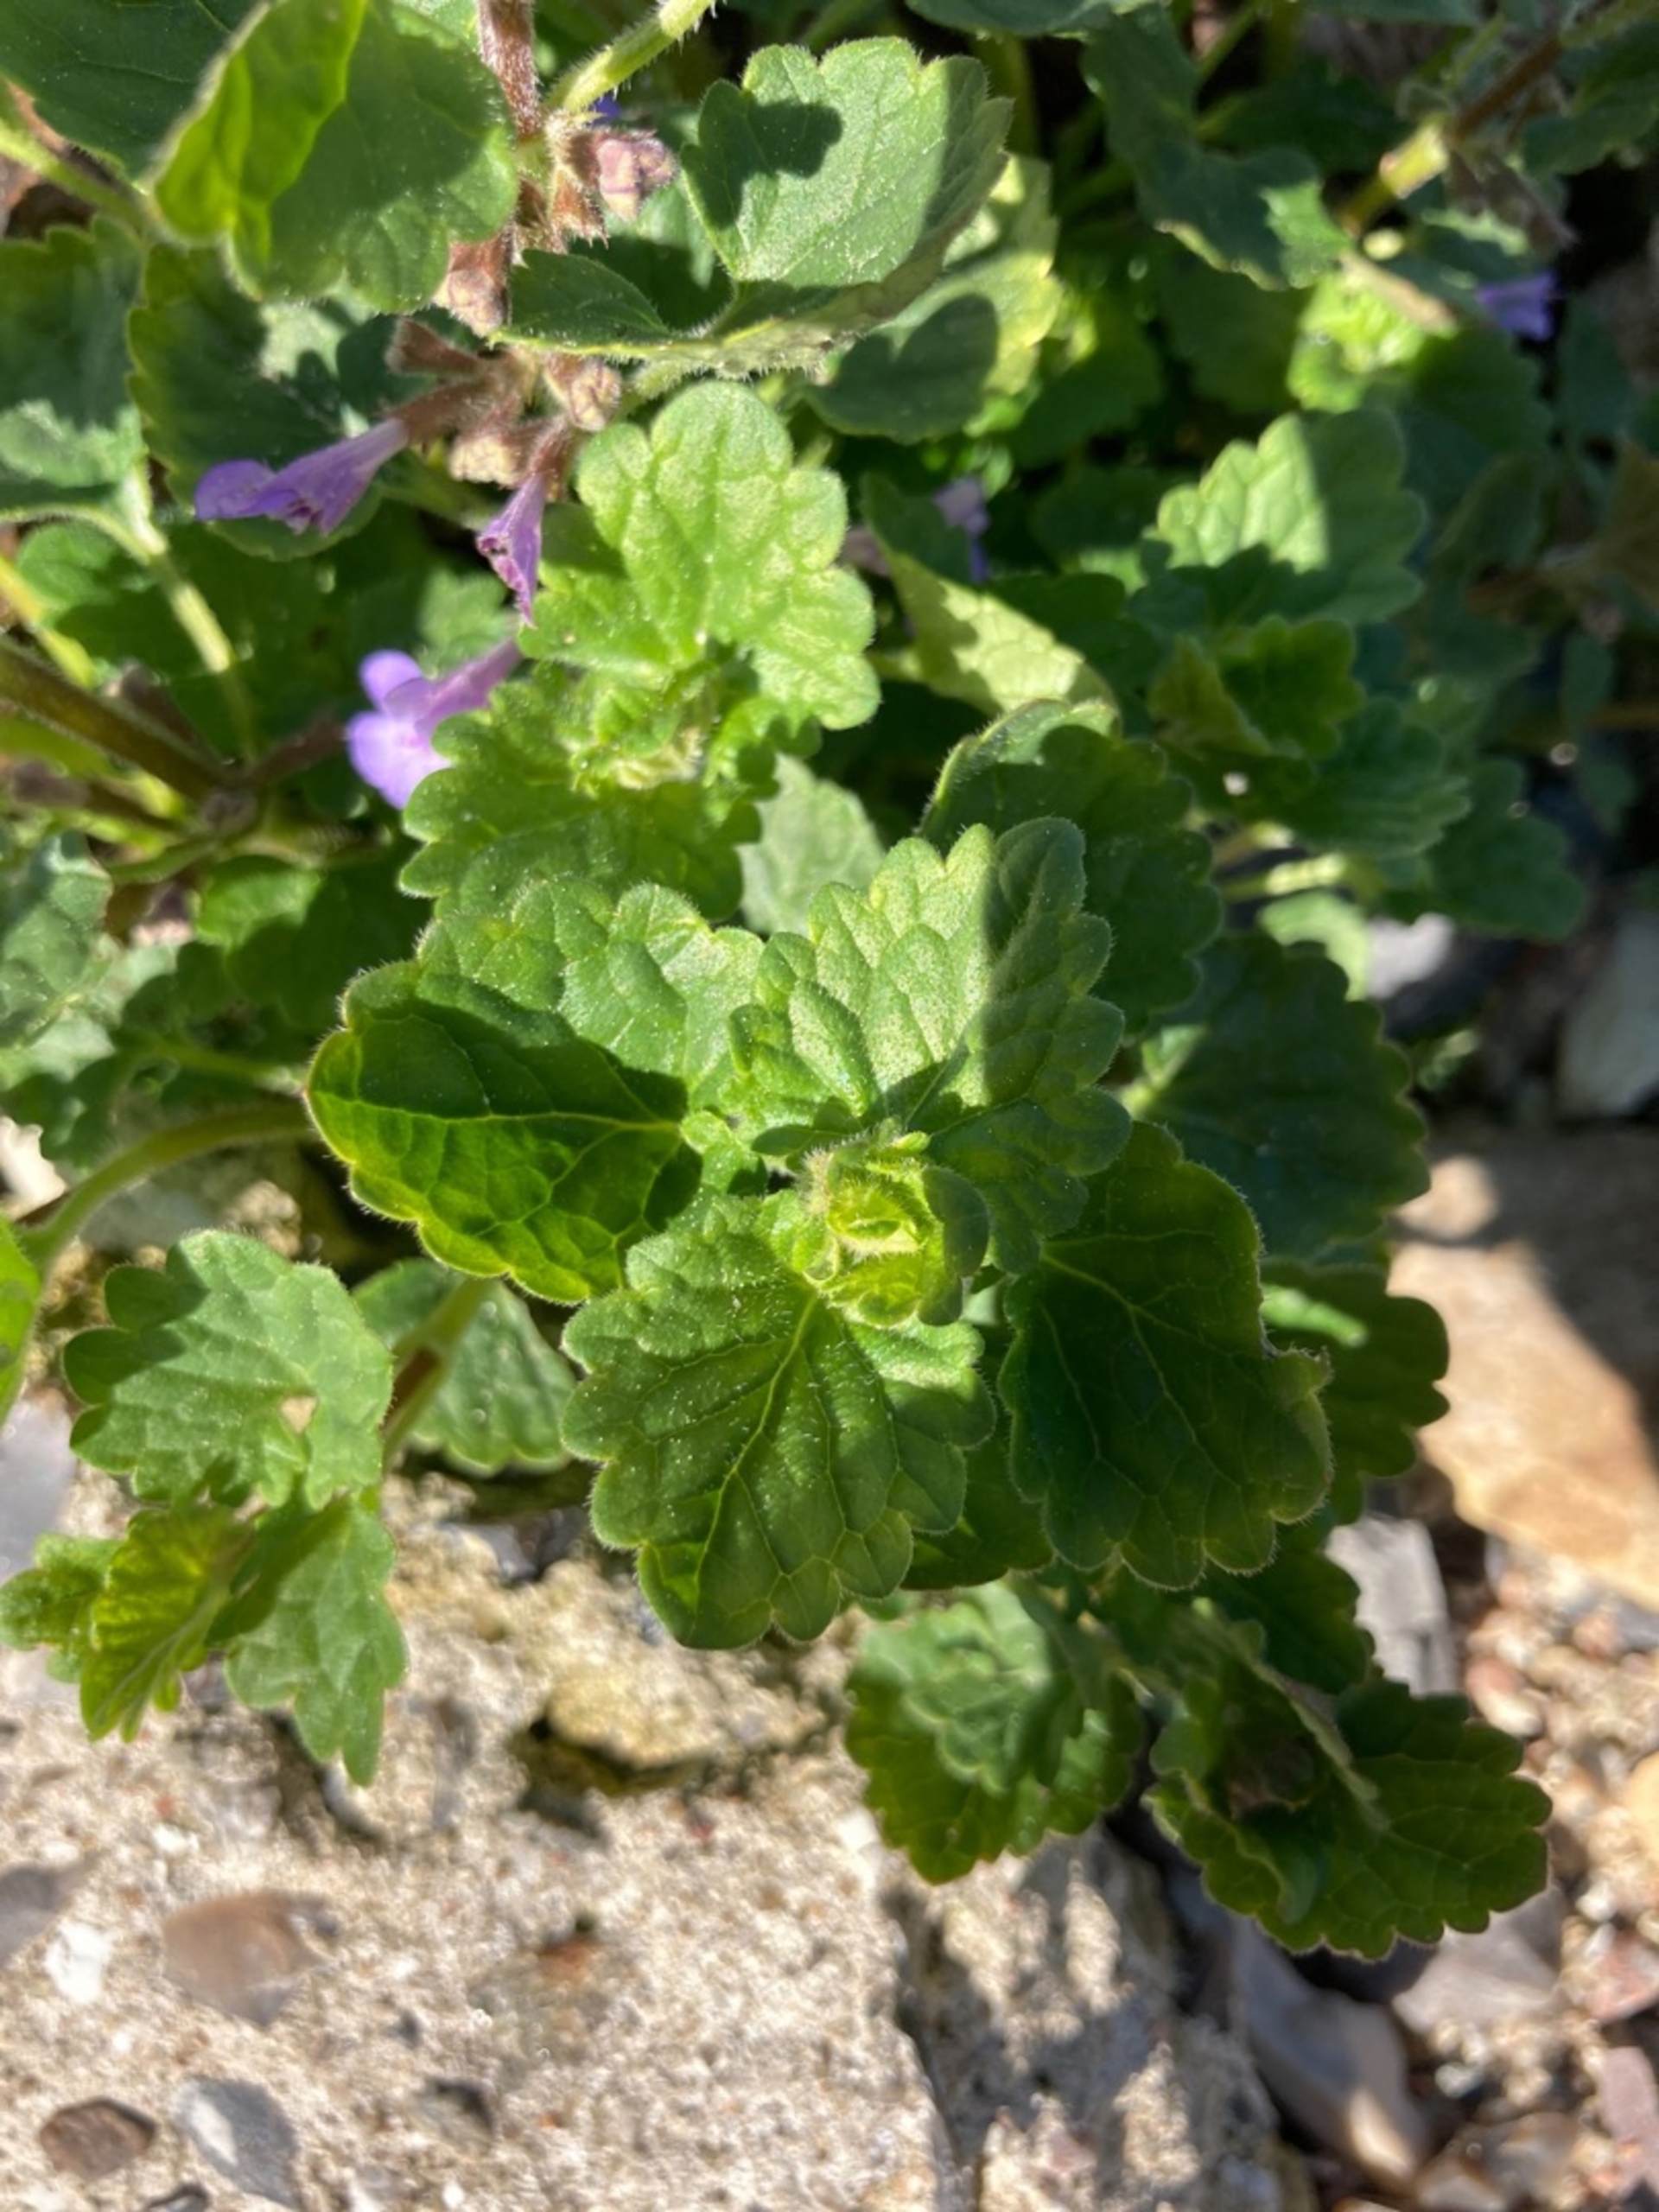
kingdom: Plantae
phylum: Tracheophyta
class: Magnoliopsida
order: Lamiales
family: Lamiaceae
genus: Glechoma
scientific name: Glechoma hederacea
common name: Korsknap
